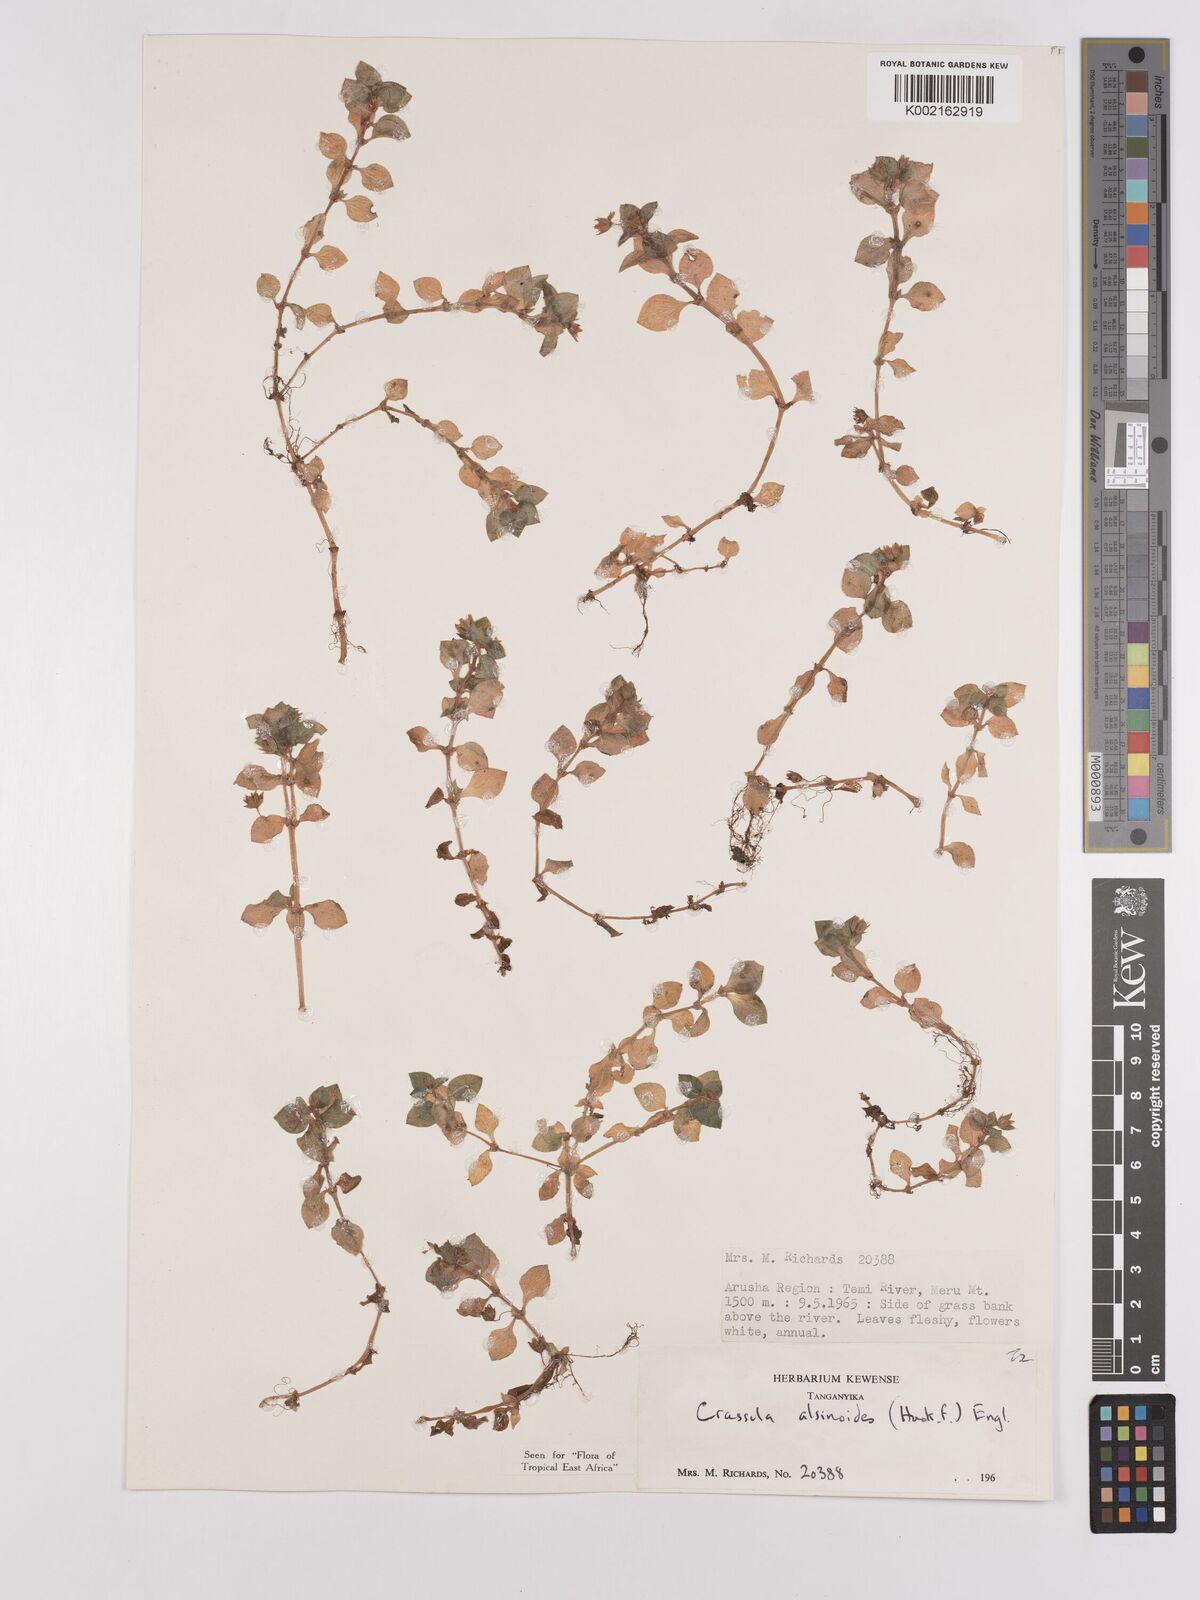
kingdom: Plantae
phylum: Tracheophyta
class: Magnoliopsida
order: Saxifragales
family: Crassulaceae
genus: Crassula
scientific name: Crassula alsinoides
